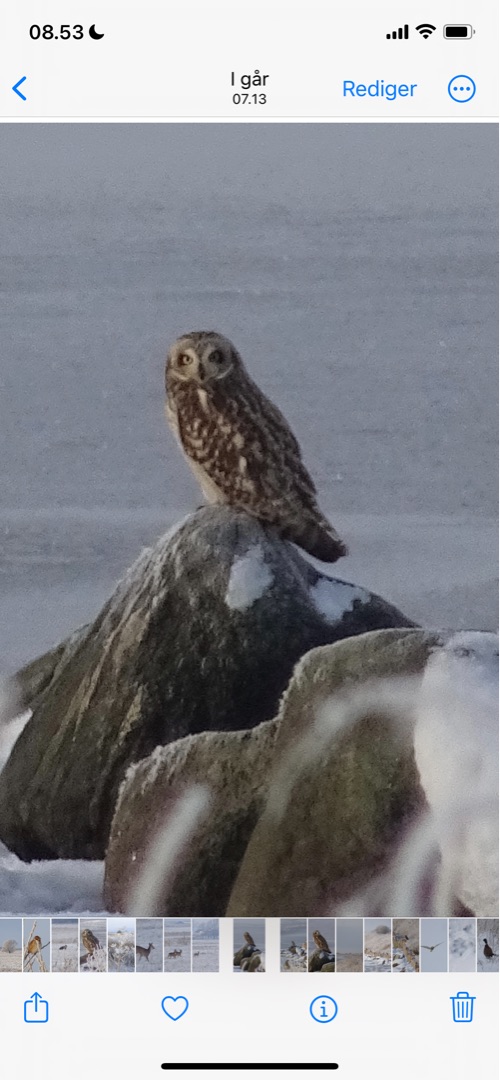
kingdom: Animalia
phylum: Chordata
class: Aves
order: Strigiformes
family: Strigidae
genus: Asio
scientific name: Asio flammeus
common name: Mosehornugle
